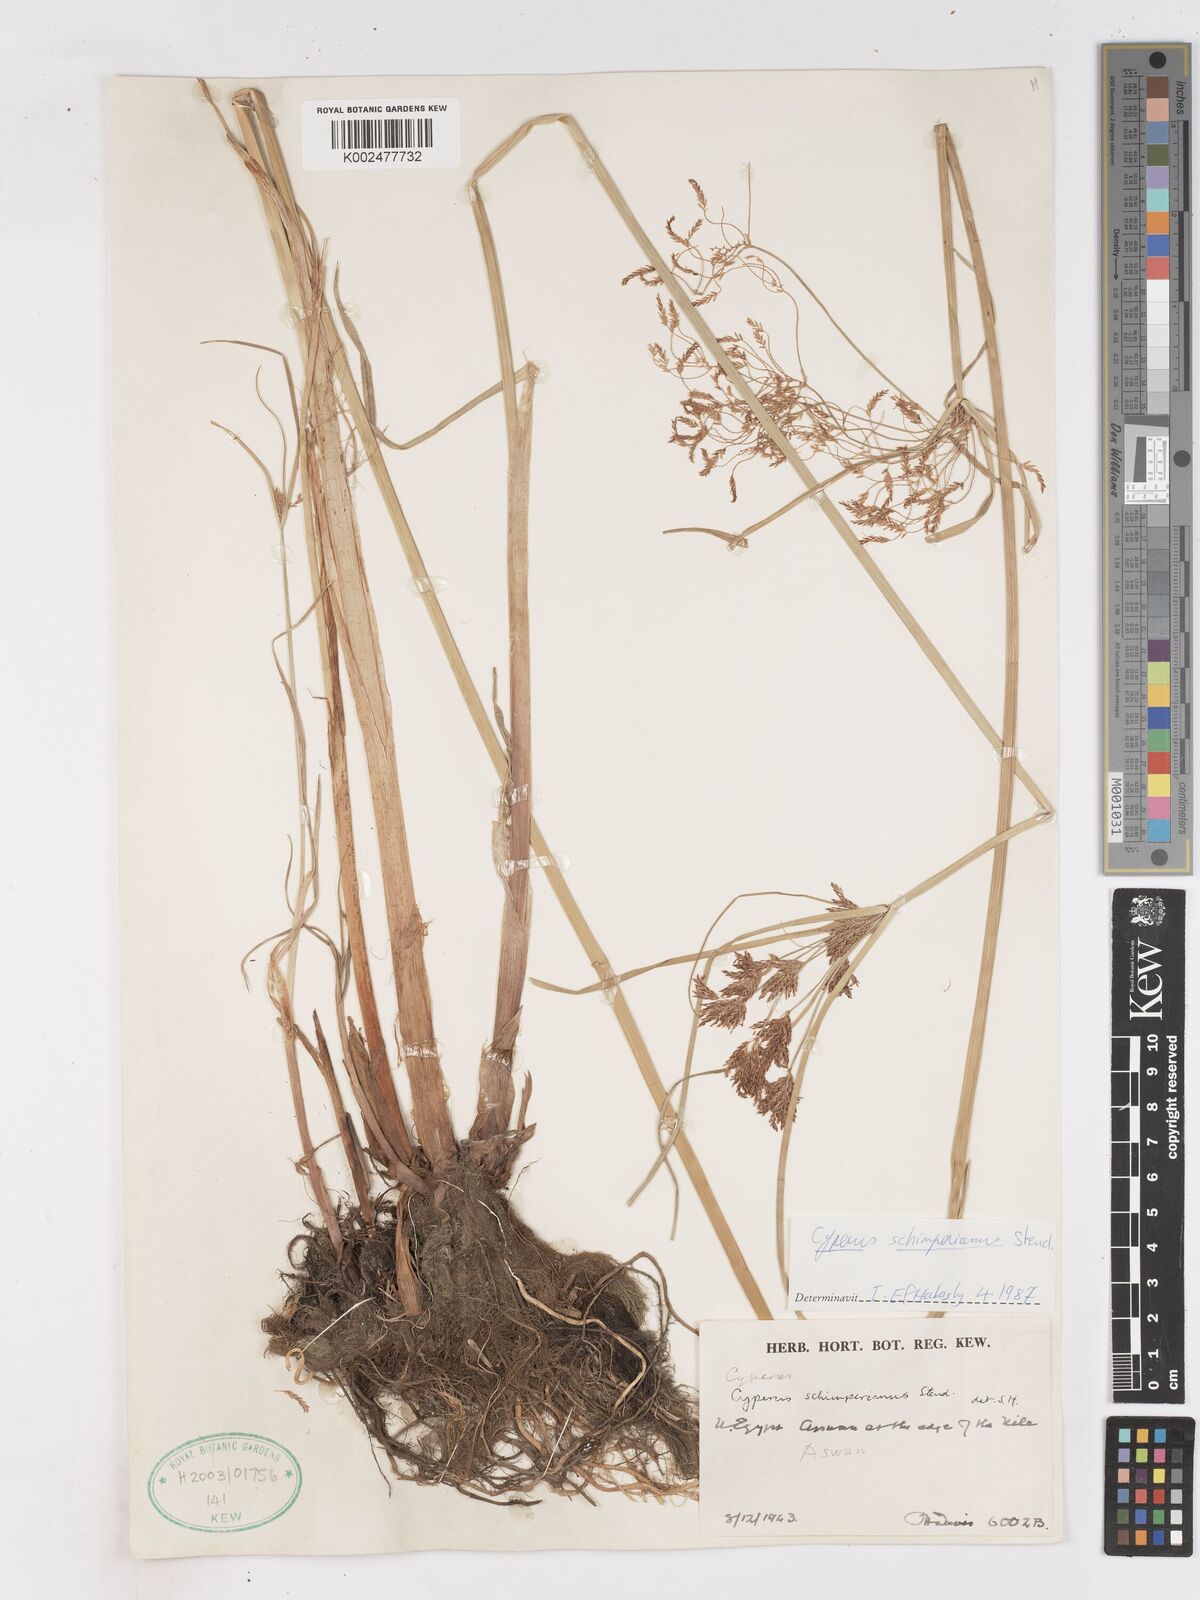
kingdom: Plantae
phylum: Tracheophyta
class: Liliopsida
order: Poales
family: Cyperaceae
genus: Cyperus
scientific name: Cyperus schimperianus
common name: Schimper flatsedge
